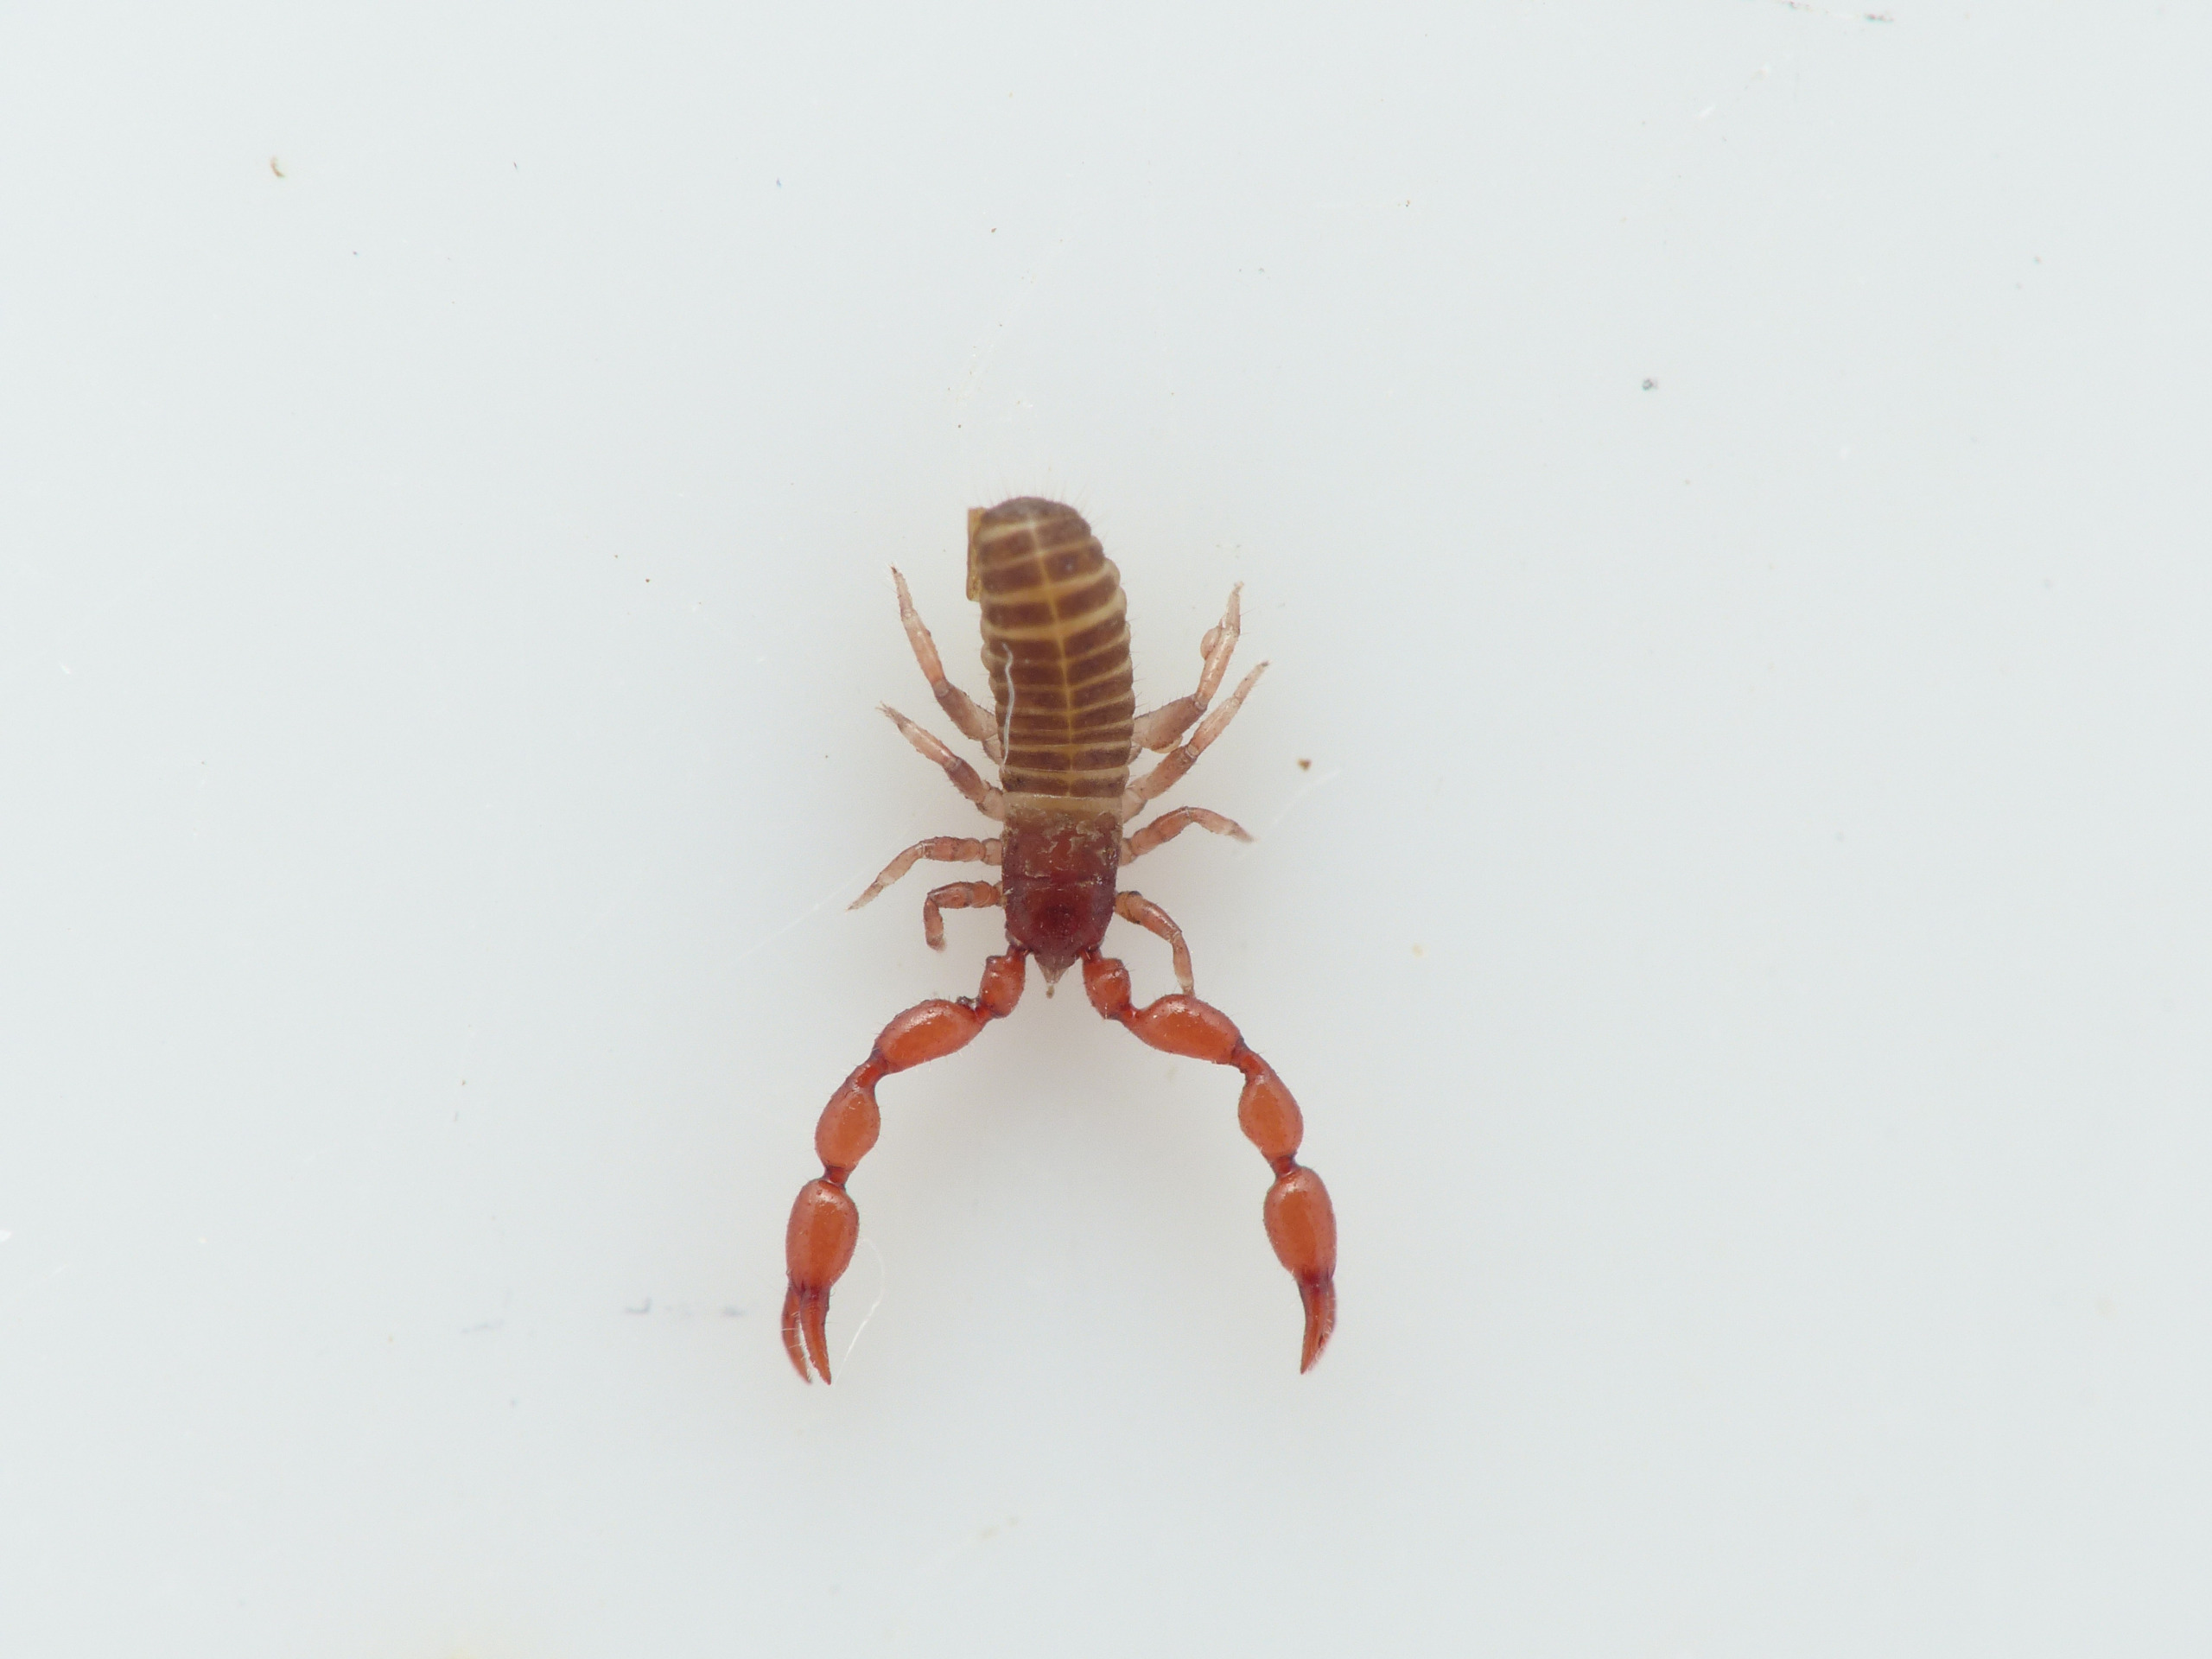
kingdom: Animalia
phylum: Arthropoda
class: Arachnida
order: Pseudoscorpiones
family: Chernetidae
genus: Lamprochernes
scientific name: Lamprochernes chyzeri
